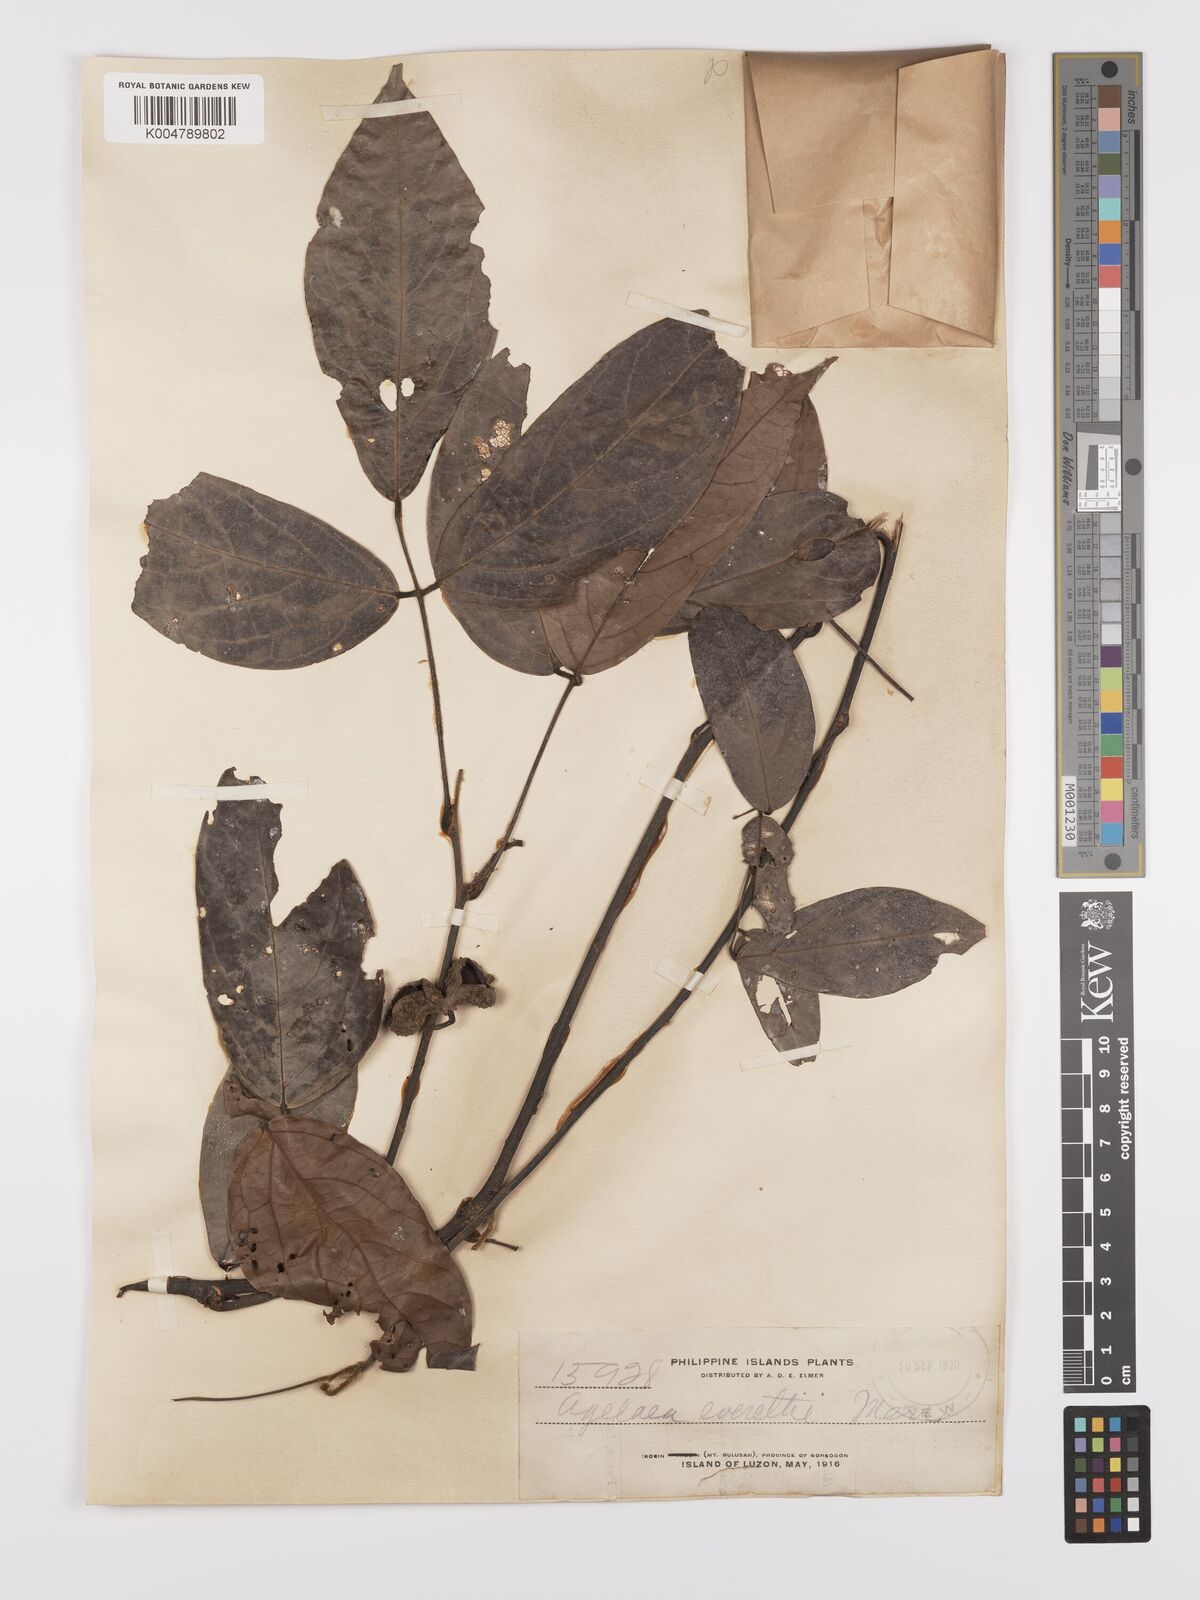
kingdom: Plantae
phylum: Tracheophyta
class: Magnoliopsida
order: Oxalidales
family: Connaraceae
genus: Agelaea
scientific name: Agelaea borneensis
